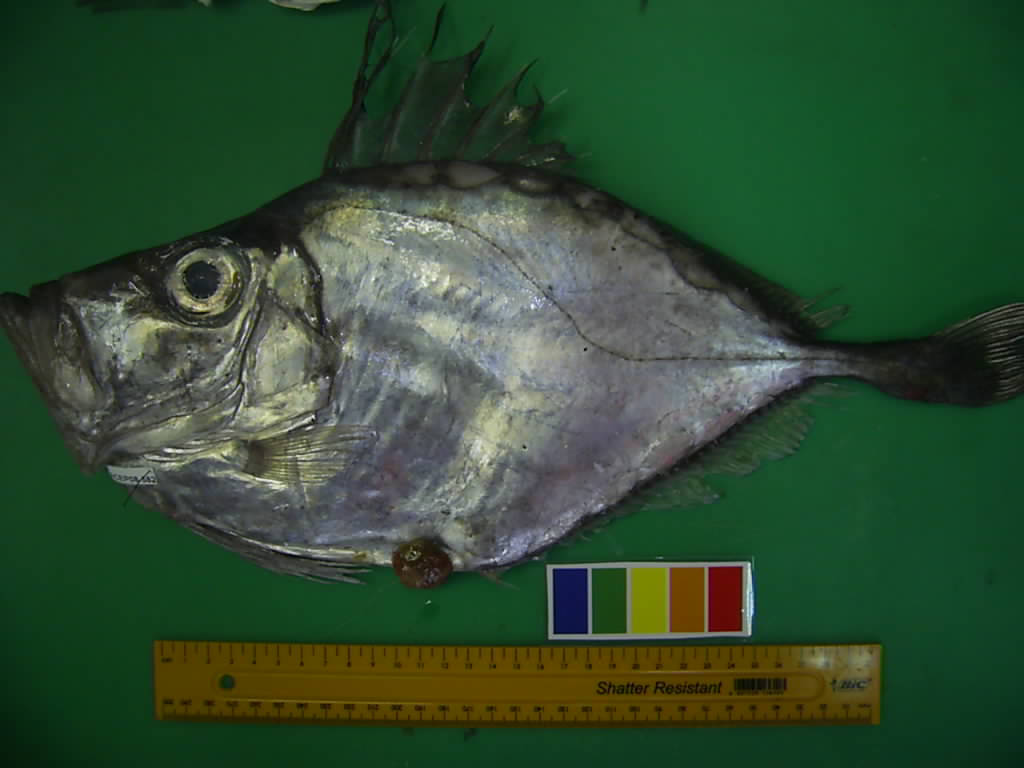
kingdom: Animalia
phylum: Chordata
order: Zeiformes
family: Zeidae
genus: Zenopsis
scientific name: Zenopsis conchifer
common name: Silvery john dory
